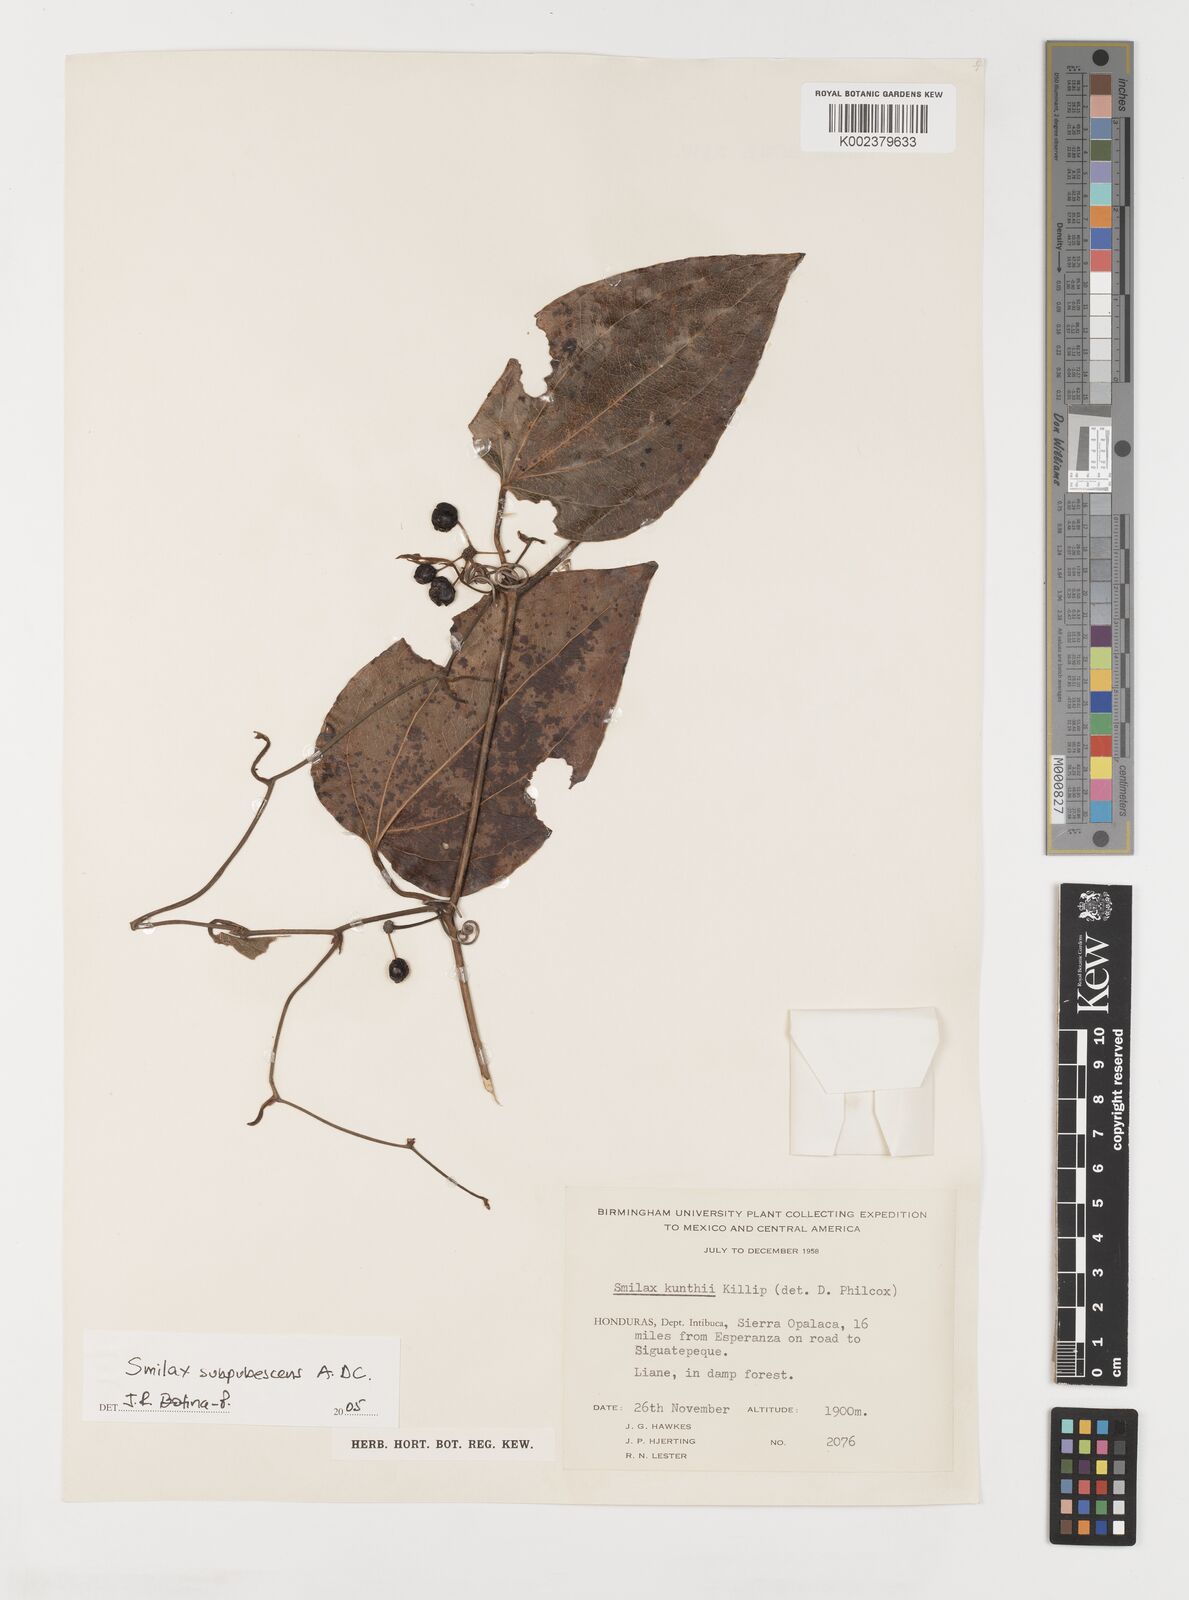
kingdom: Plantae
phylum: Tracheophyta
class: Liliopsida
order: Liliales
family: Smilacaceae
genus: Smilax
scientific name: Smilax subpubescens
